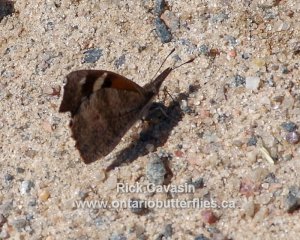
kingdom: Animalia
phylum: Arthropoda
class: Insecta
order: Lepidoptera
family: Nymphalidae
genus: Libytheana
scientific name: Libytheana carinenta
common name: American Snout
